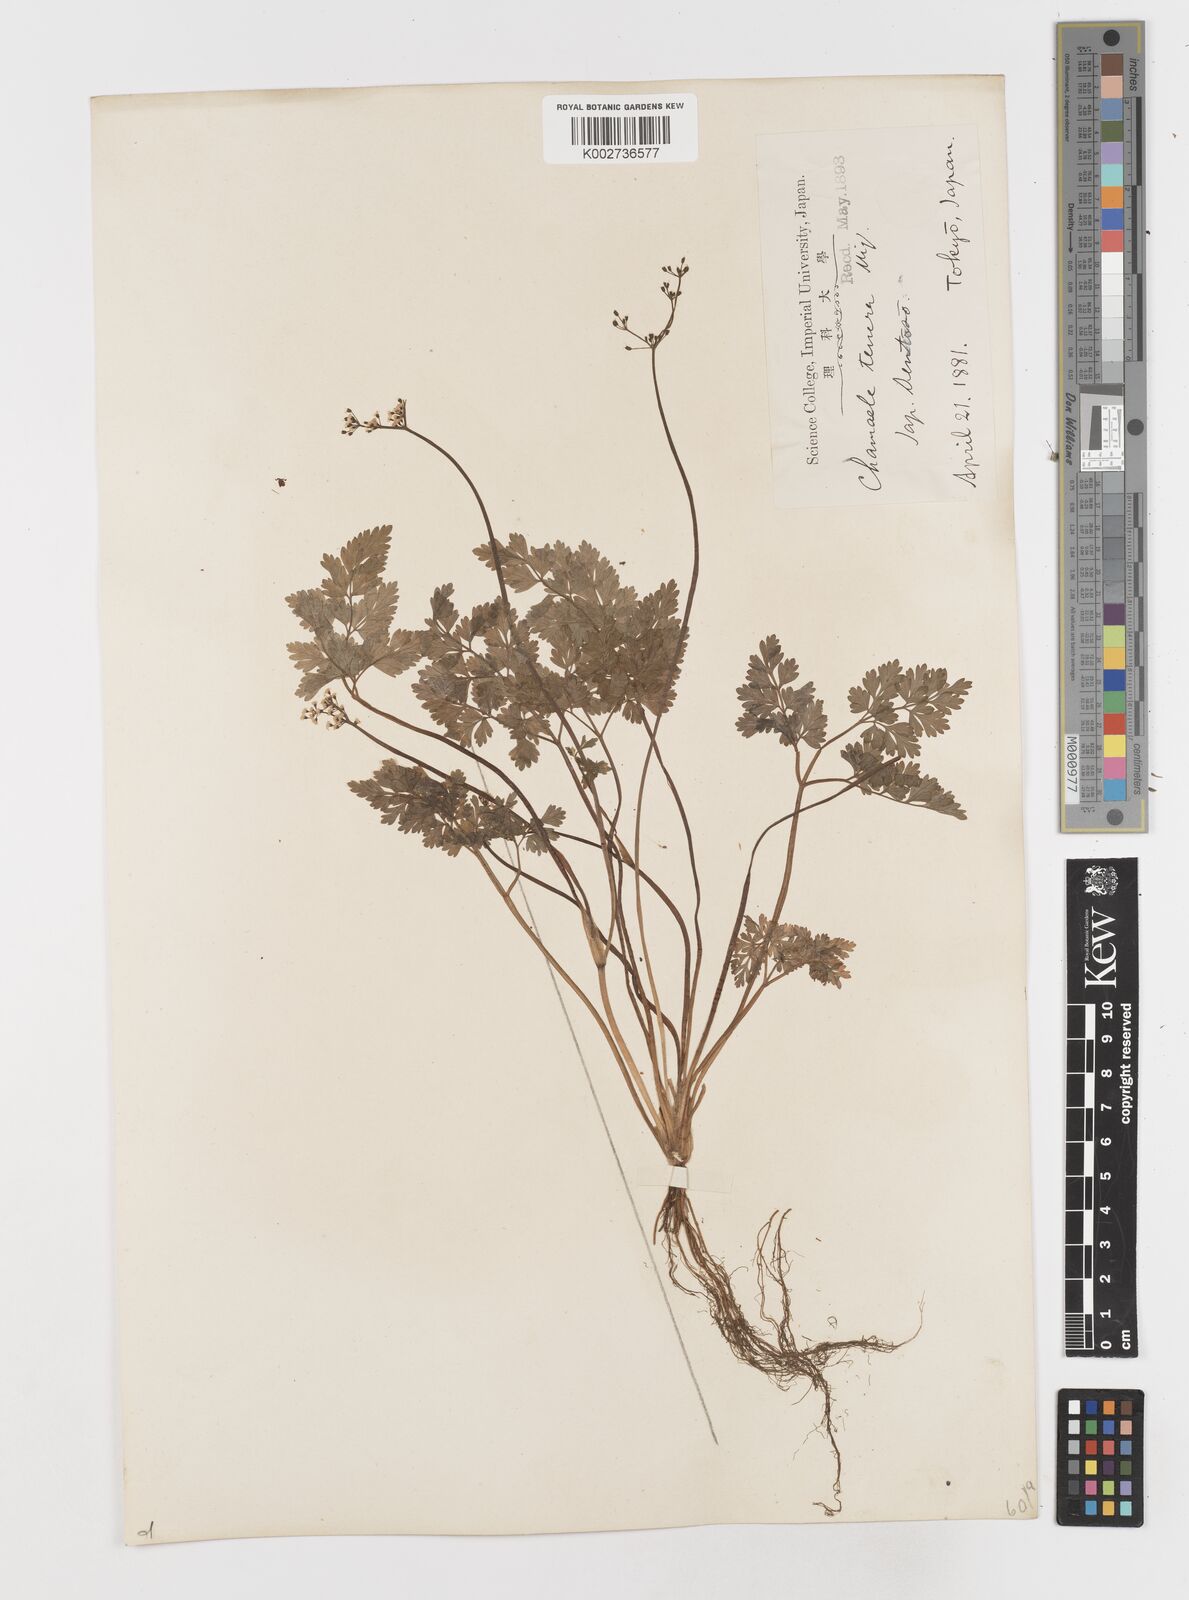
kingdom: Plantae
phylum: Tracheophyta
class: Magnoliopsida
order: Apiales
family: Apiaceae
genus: Aegopodium
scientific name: Aegopodium decumbens
